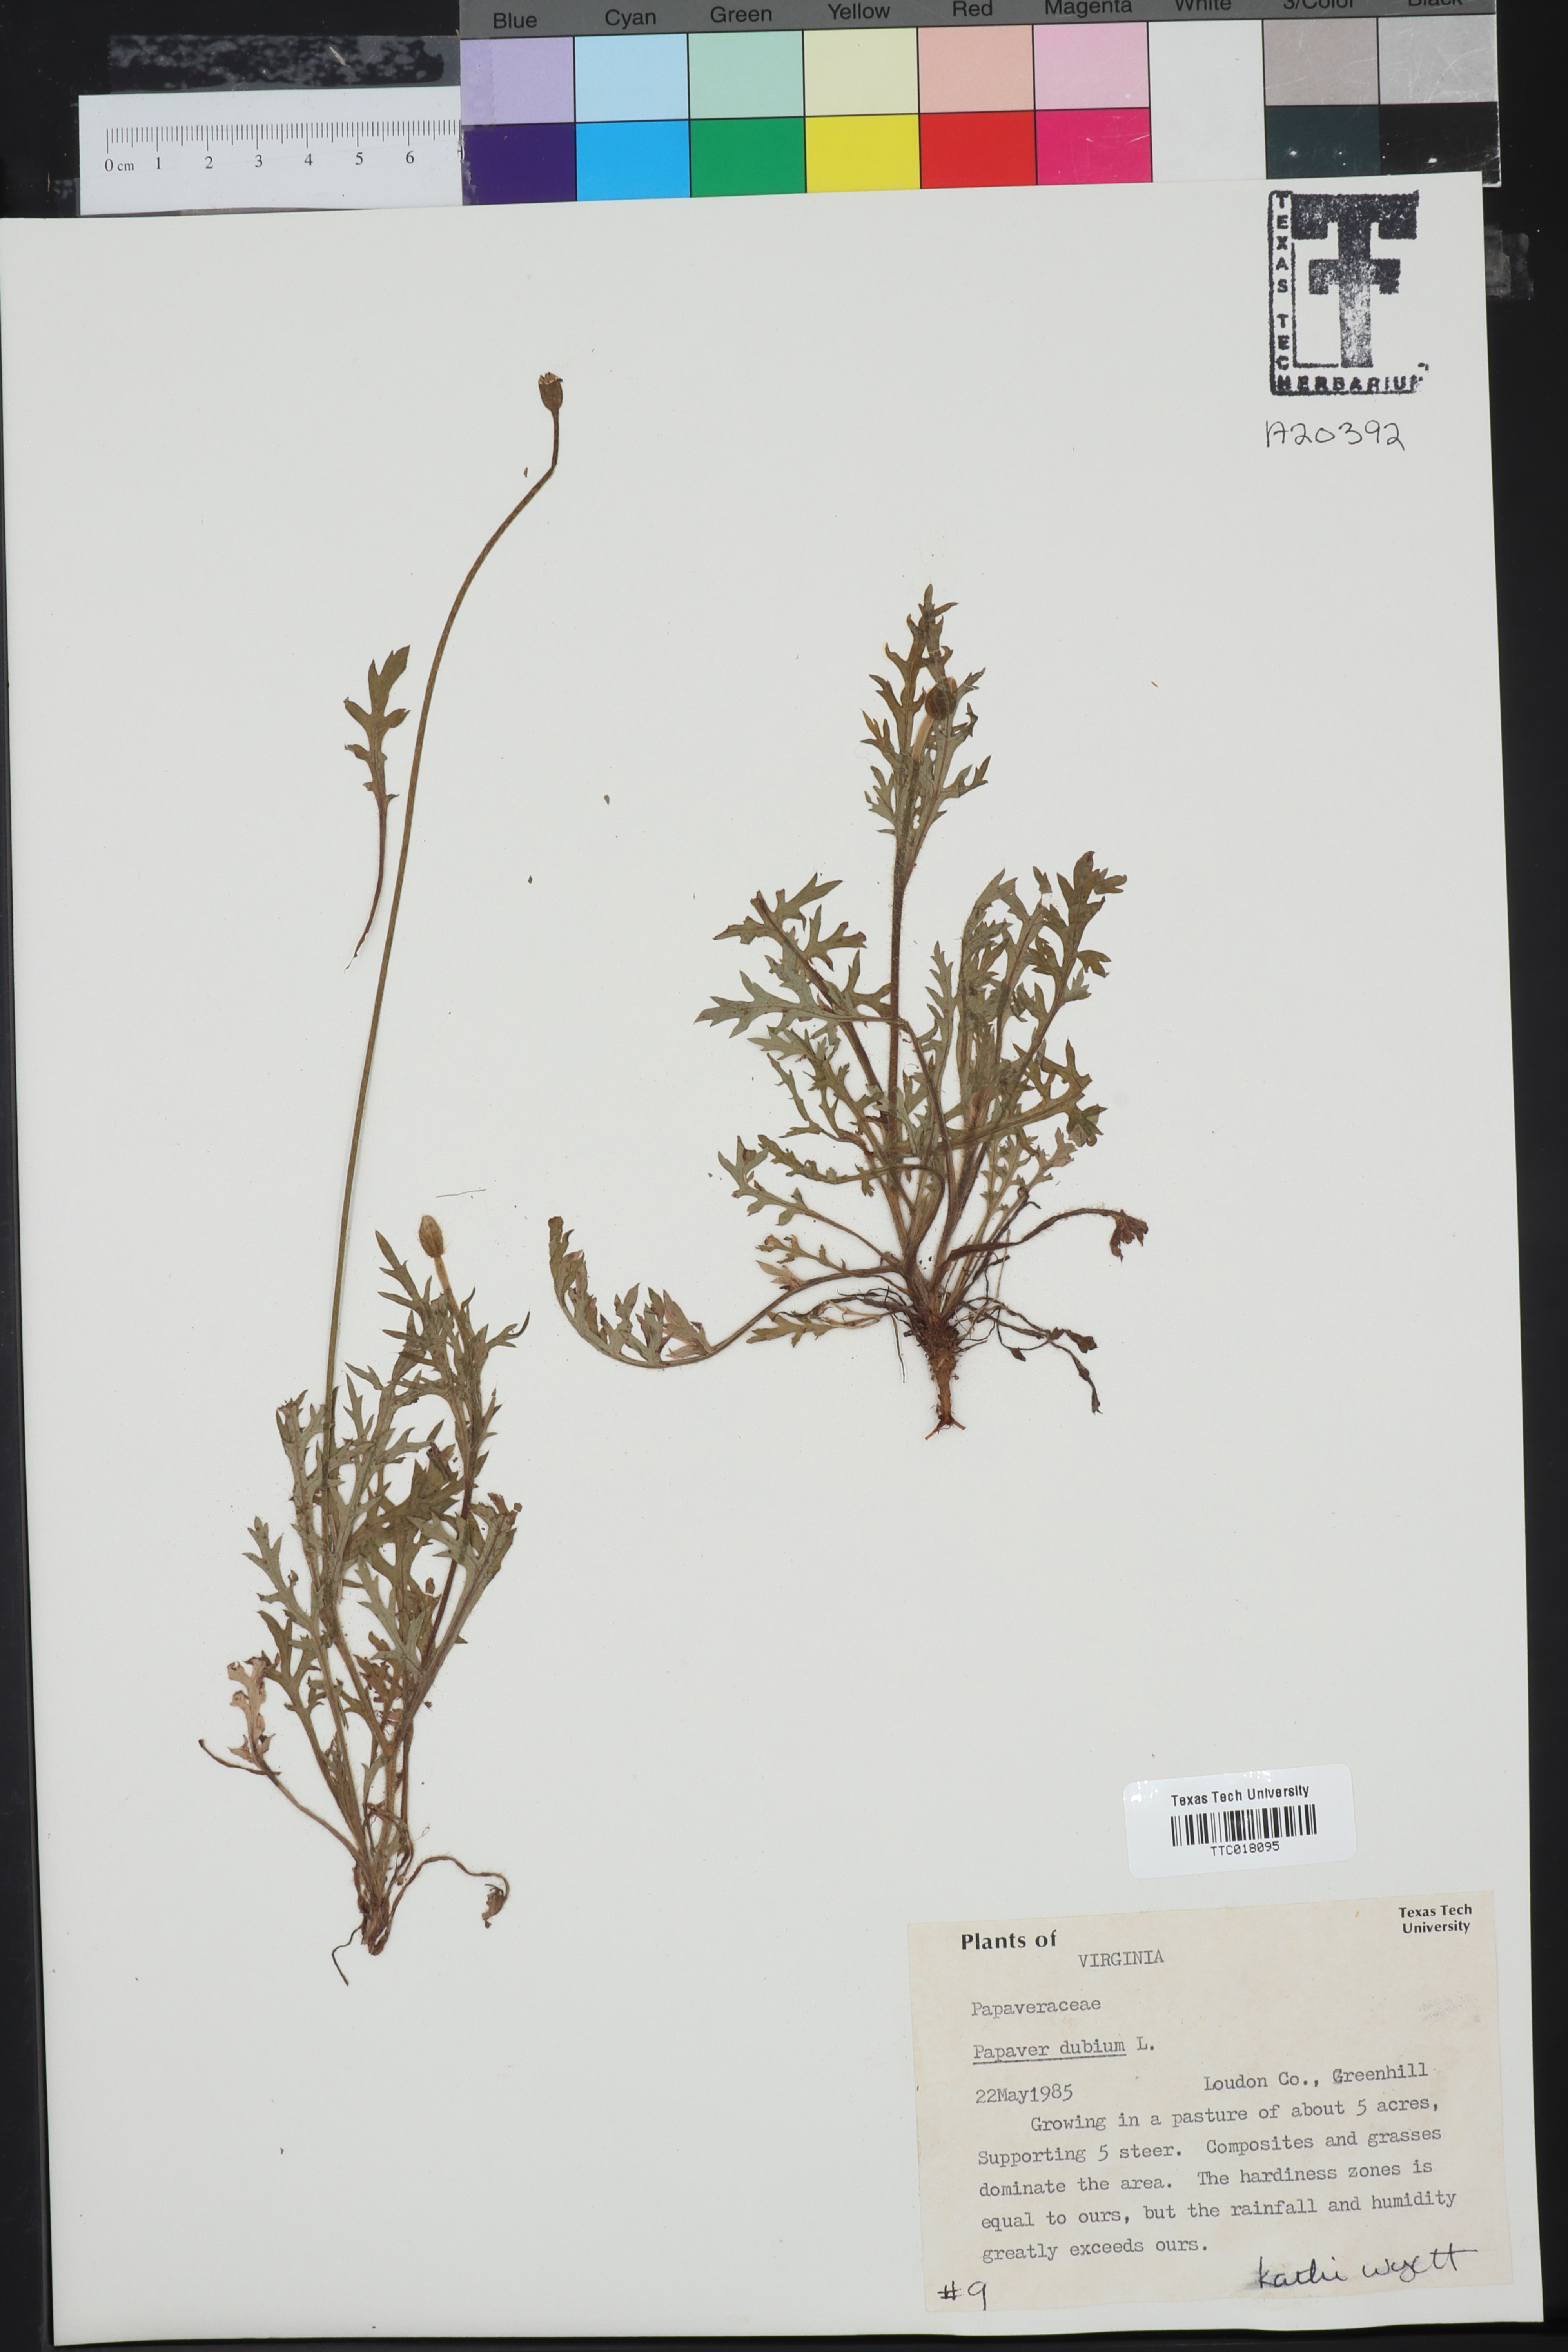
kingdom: Plantae
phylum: Tracheophyta
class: Magnoliopsida
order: Ranunculales
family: Papaveraceae
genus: Papaver
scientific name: Papaver dubium
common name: Long-headed poppy
